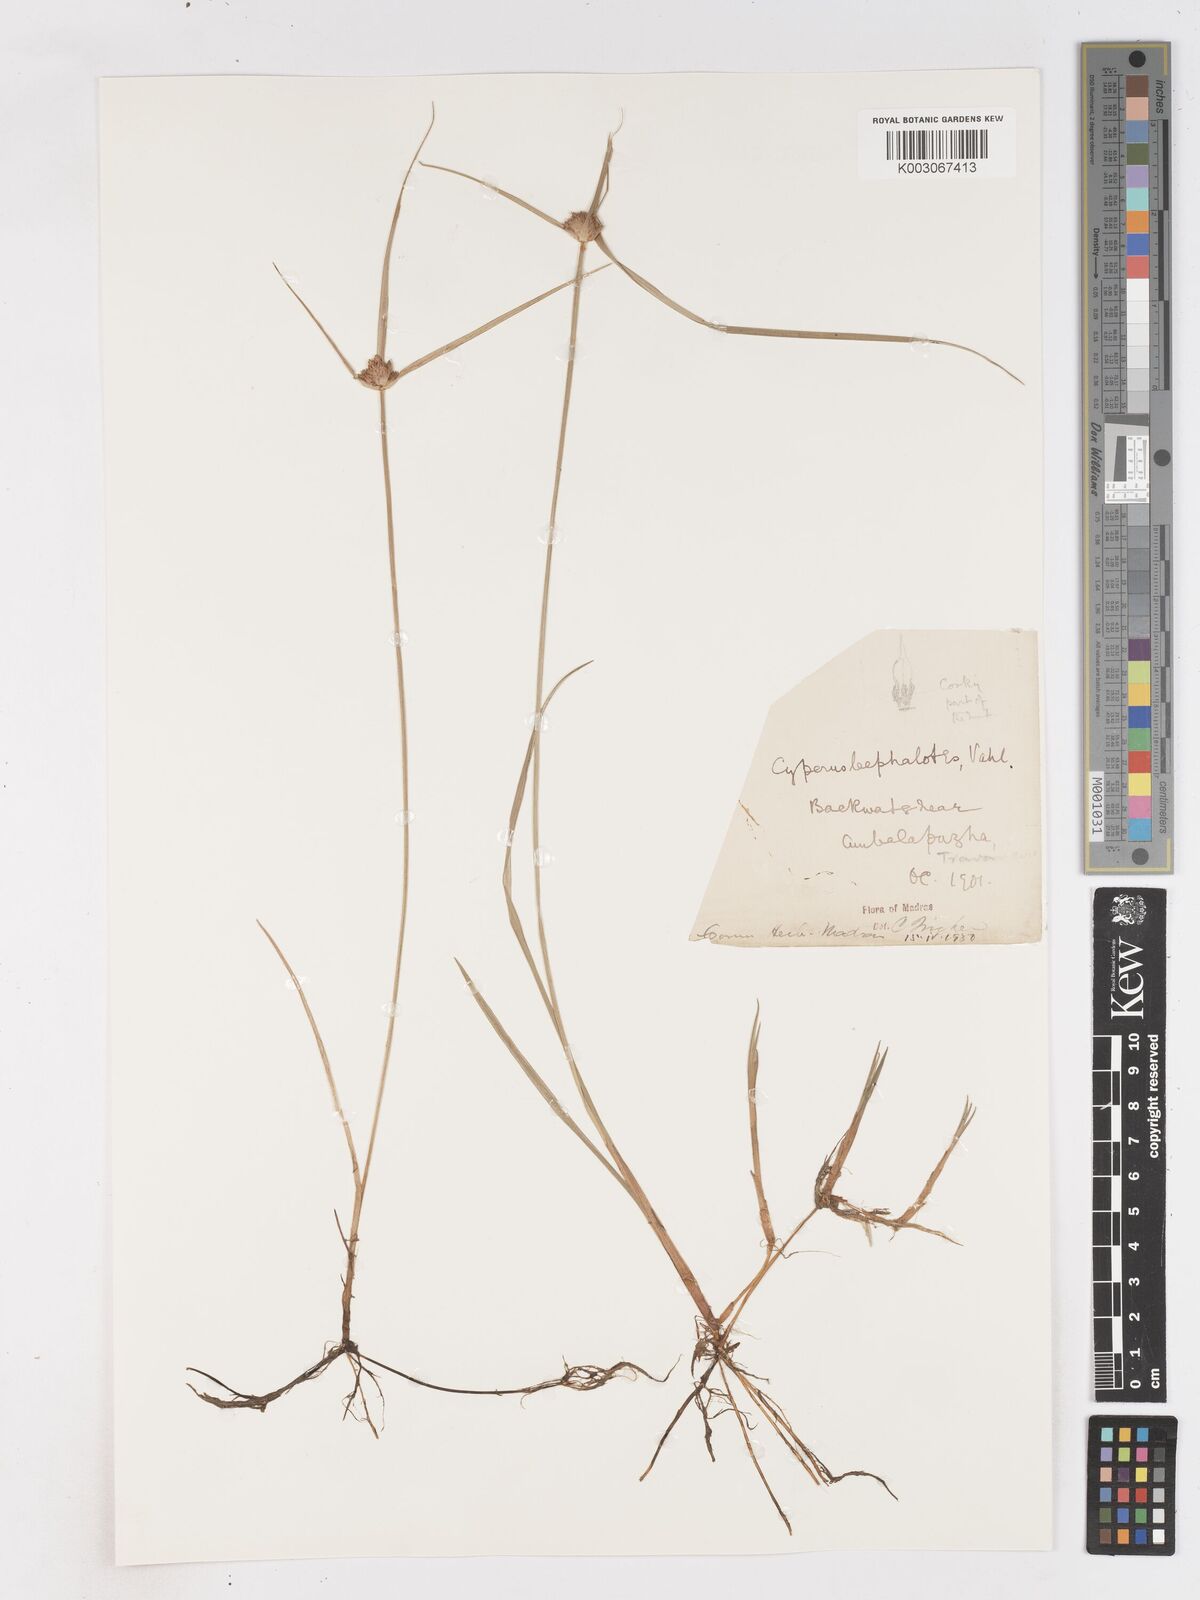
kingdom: Plantae
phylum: Tracheophyta
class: Liliopsida
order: Poales
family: Cyperaceae
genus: Cyperus
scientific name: Cyperus cephalotes
